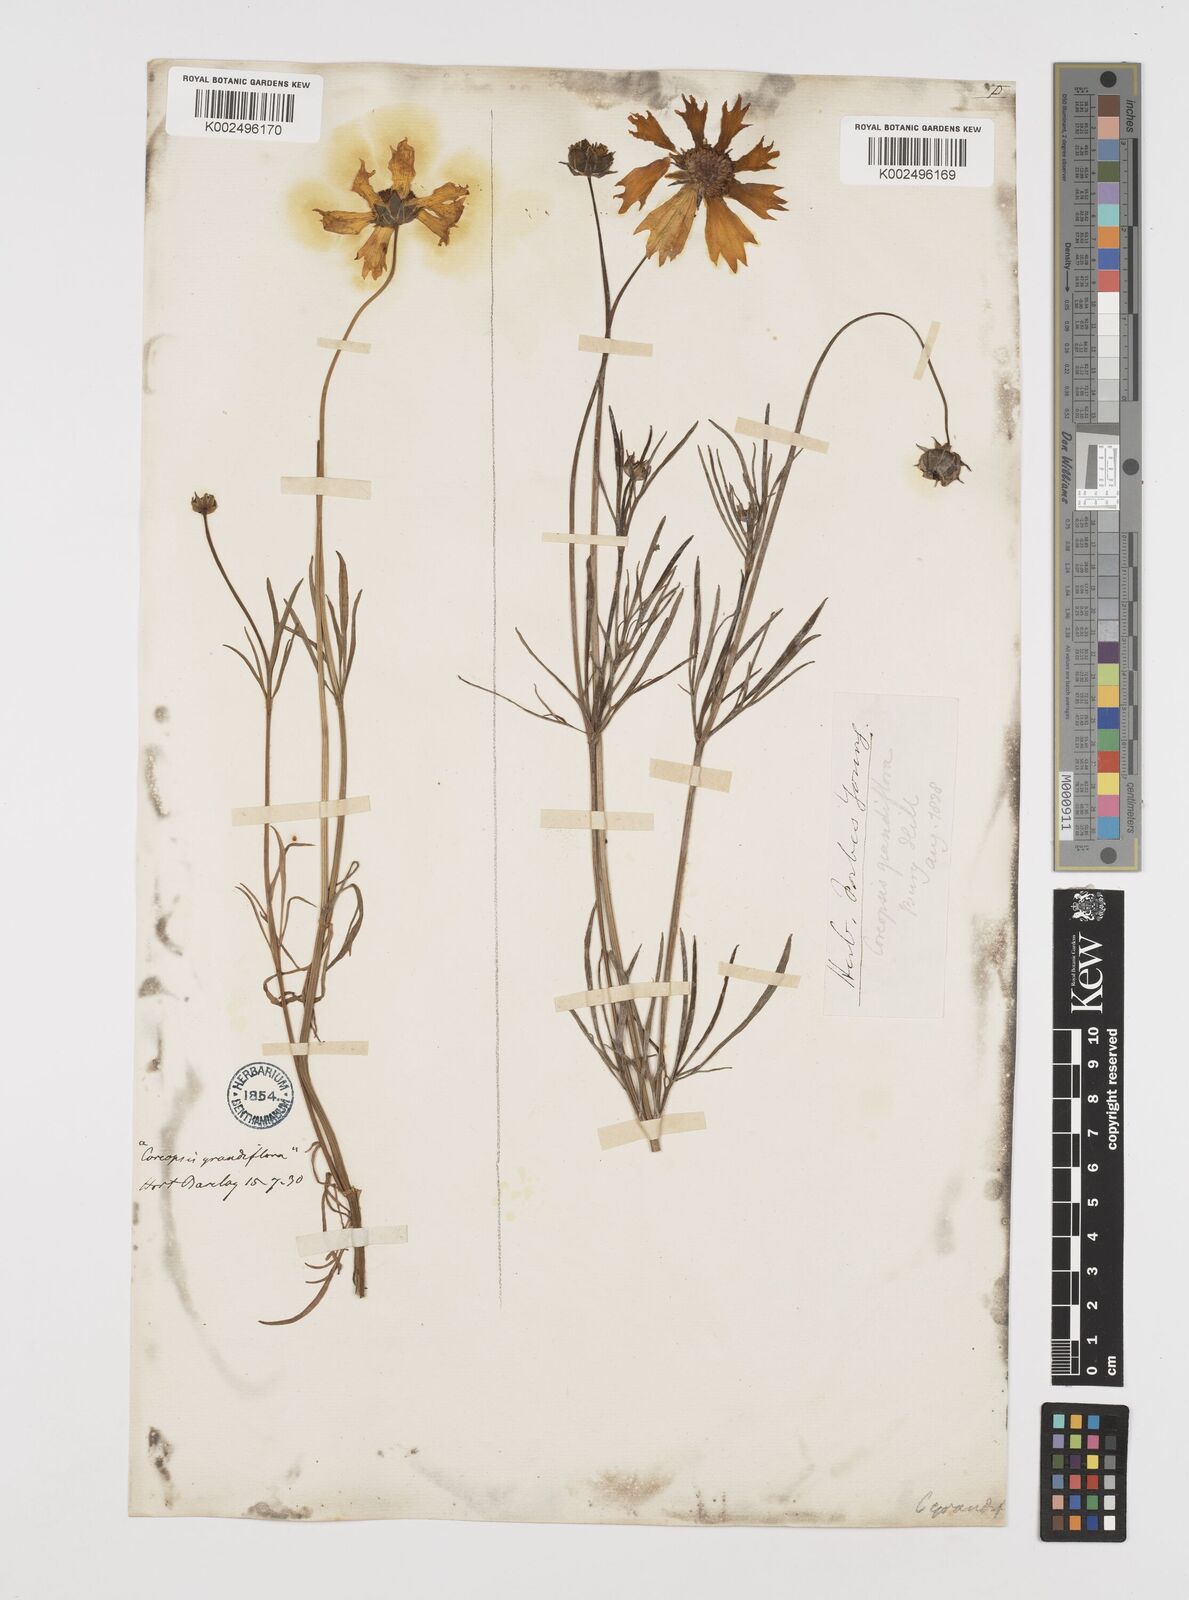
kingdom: Plantae
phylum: Tracheophyta
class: Magnoliopsida
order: Asterales
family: Asteraceae
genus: Coreopsis
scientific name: Coreopsis grandiflora
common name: Large-flowered tickseed
